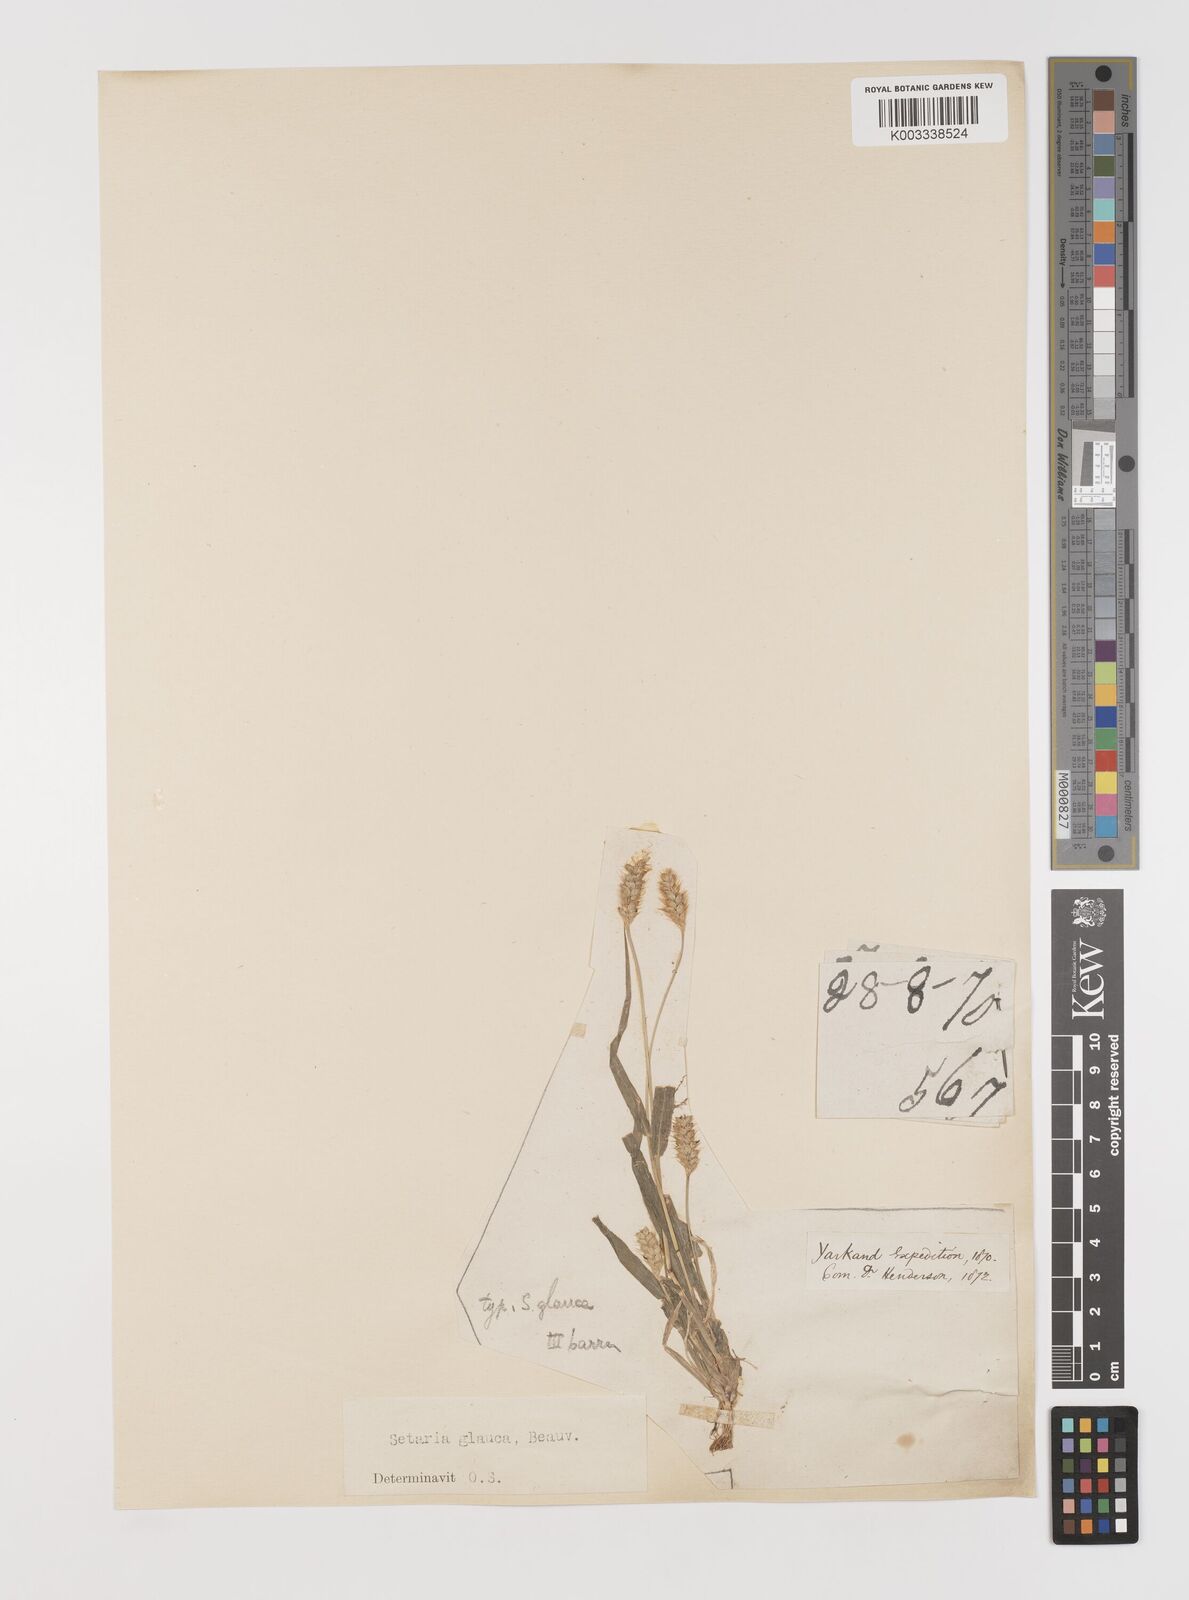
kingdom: Plantae
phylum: Tracheophyta
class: Liliopsida
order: Poales
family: Poaceae
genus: Cenchrus
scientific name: Cenchrus americanus
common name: Pearl millet
